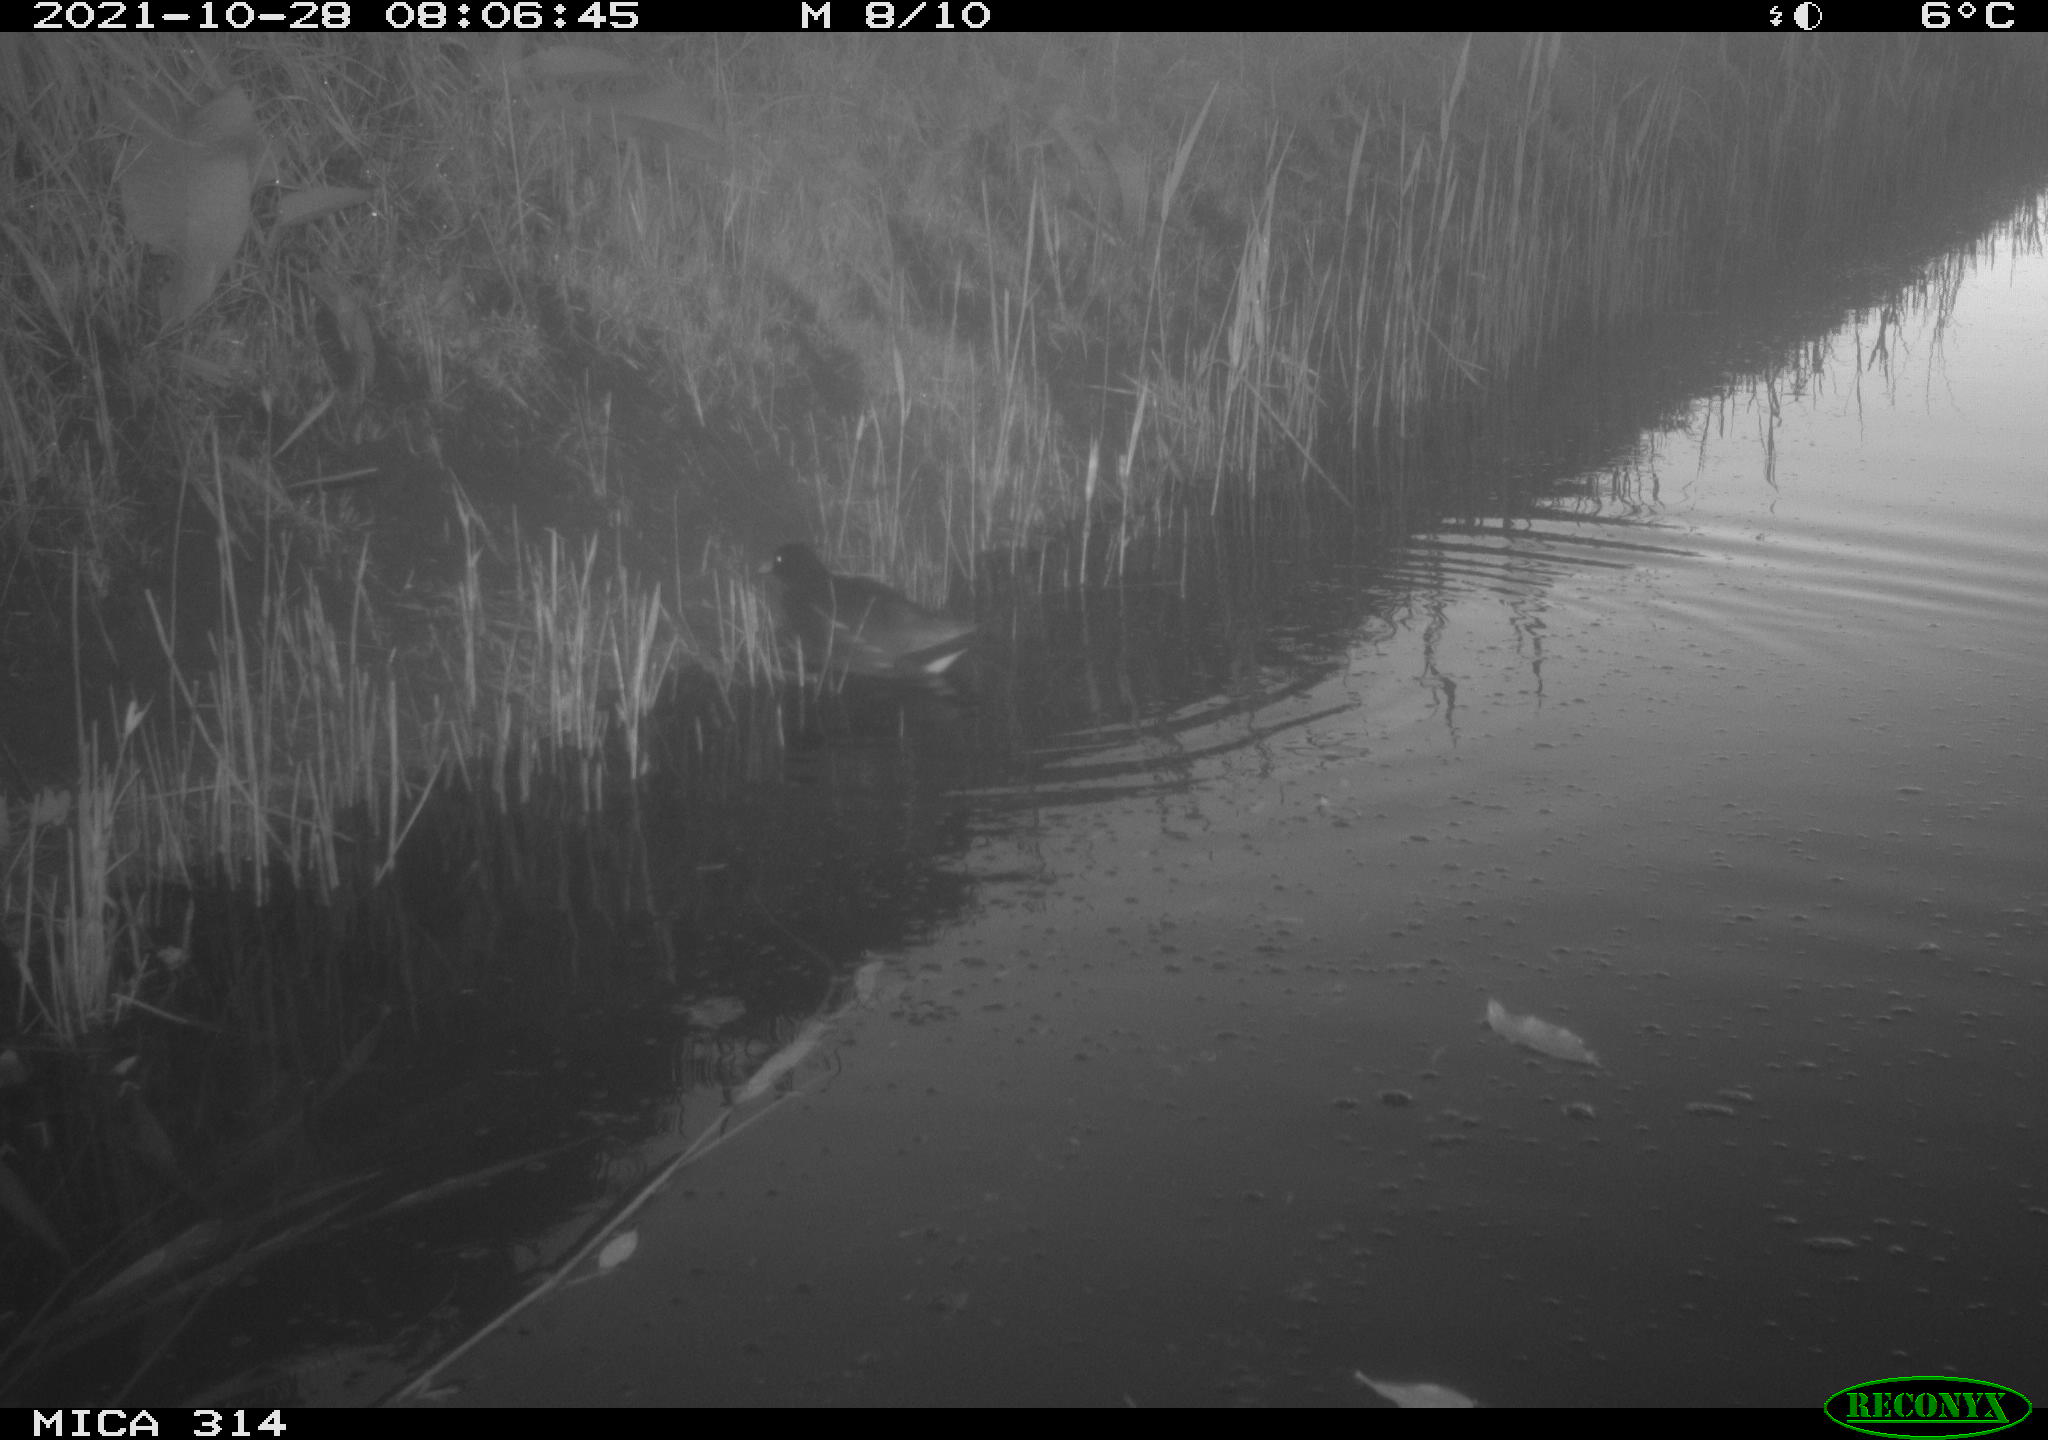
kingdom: Animalia
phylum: Chordata
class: Aves
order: Gruiformes
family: Rallidae
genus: Gallinula
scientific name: Gallinula chloropus
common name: Common moorhen
